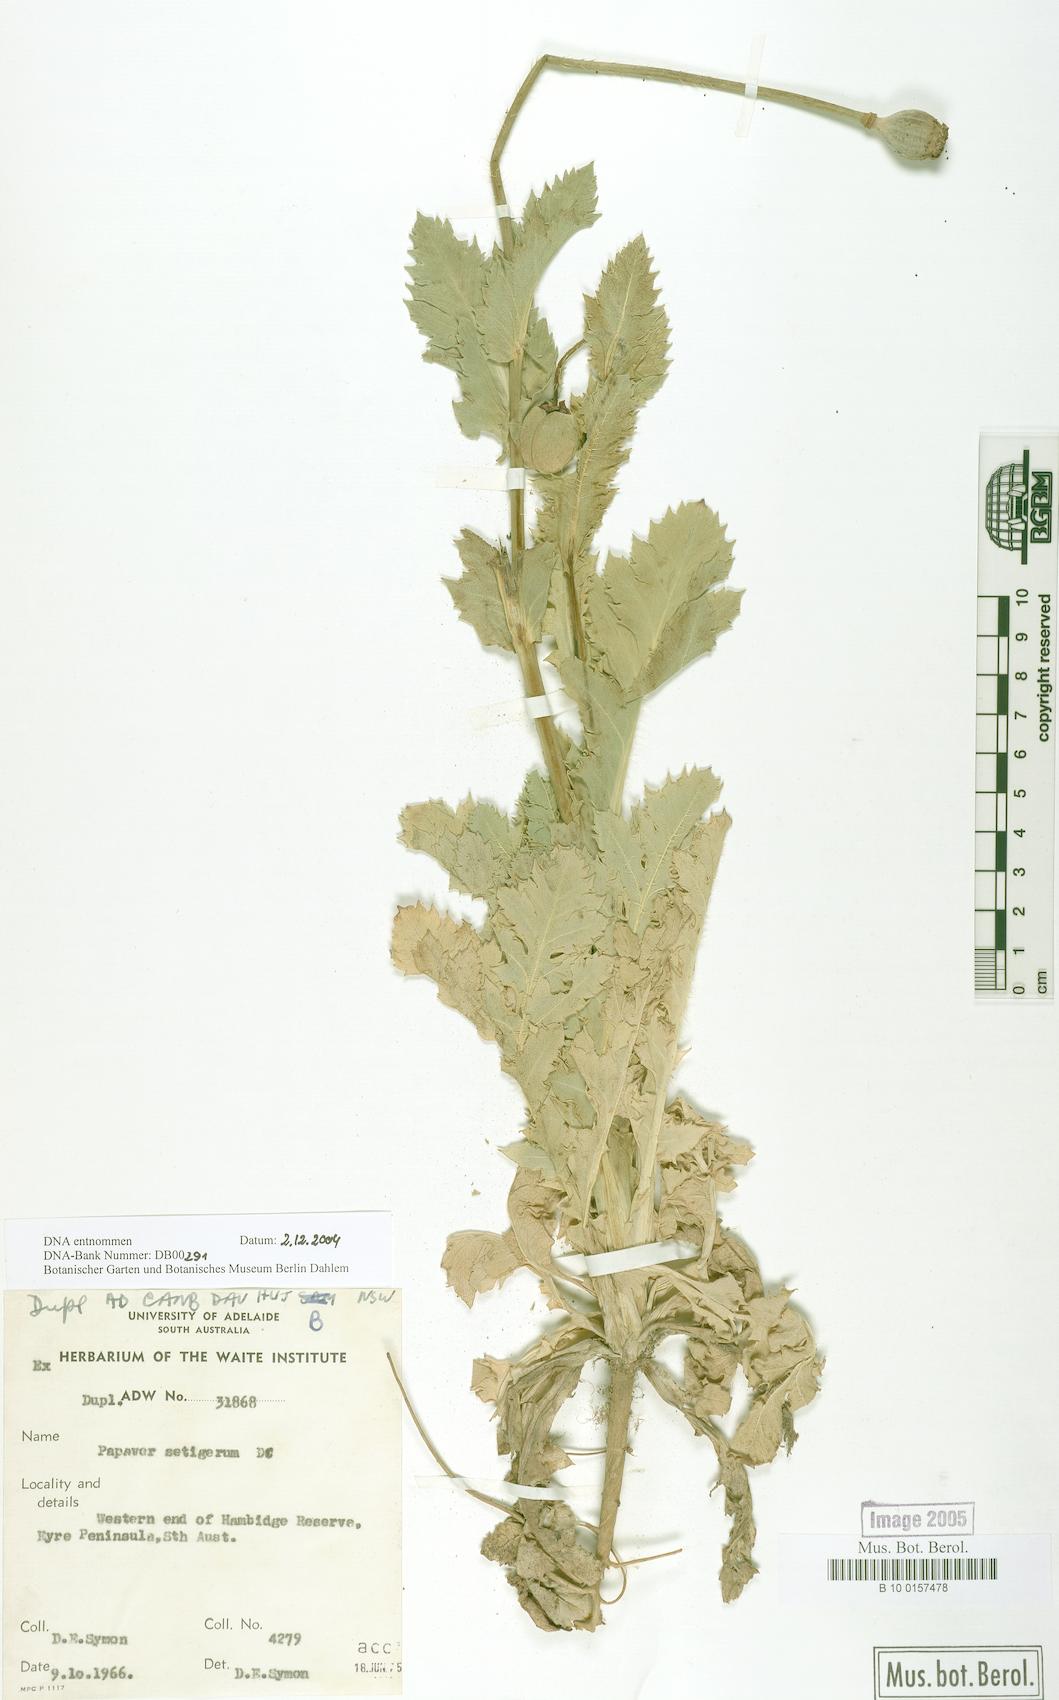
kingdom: Plantae
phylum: Tracheophyta
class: Magnoliopsida
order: Ranunculales
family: Papaveraceae
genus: Papaver
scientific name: Papaver setigerum
